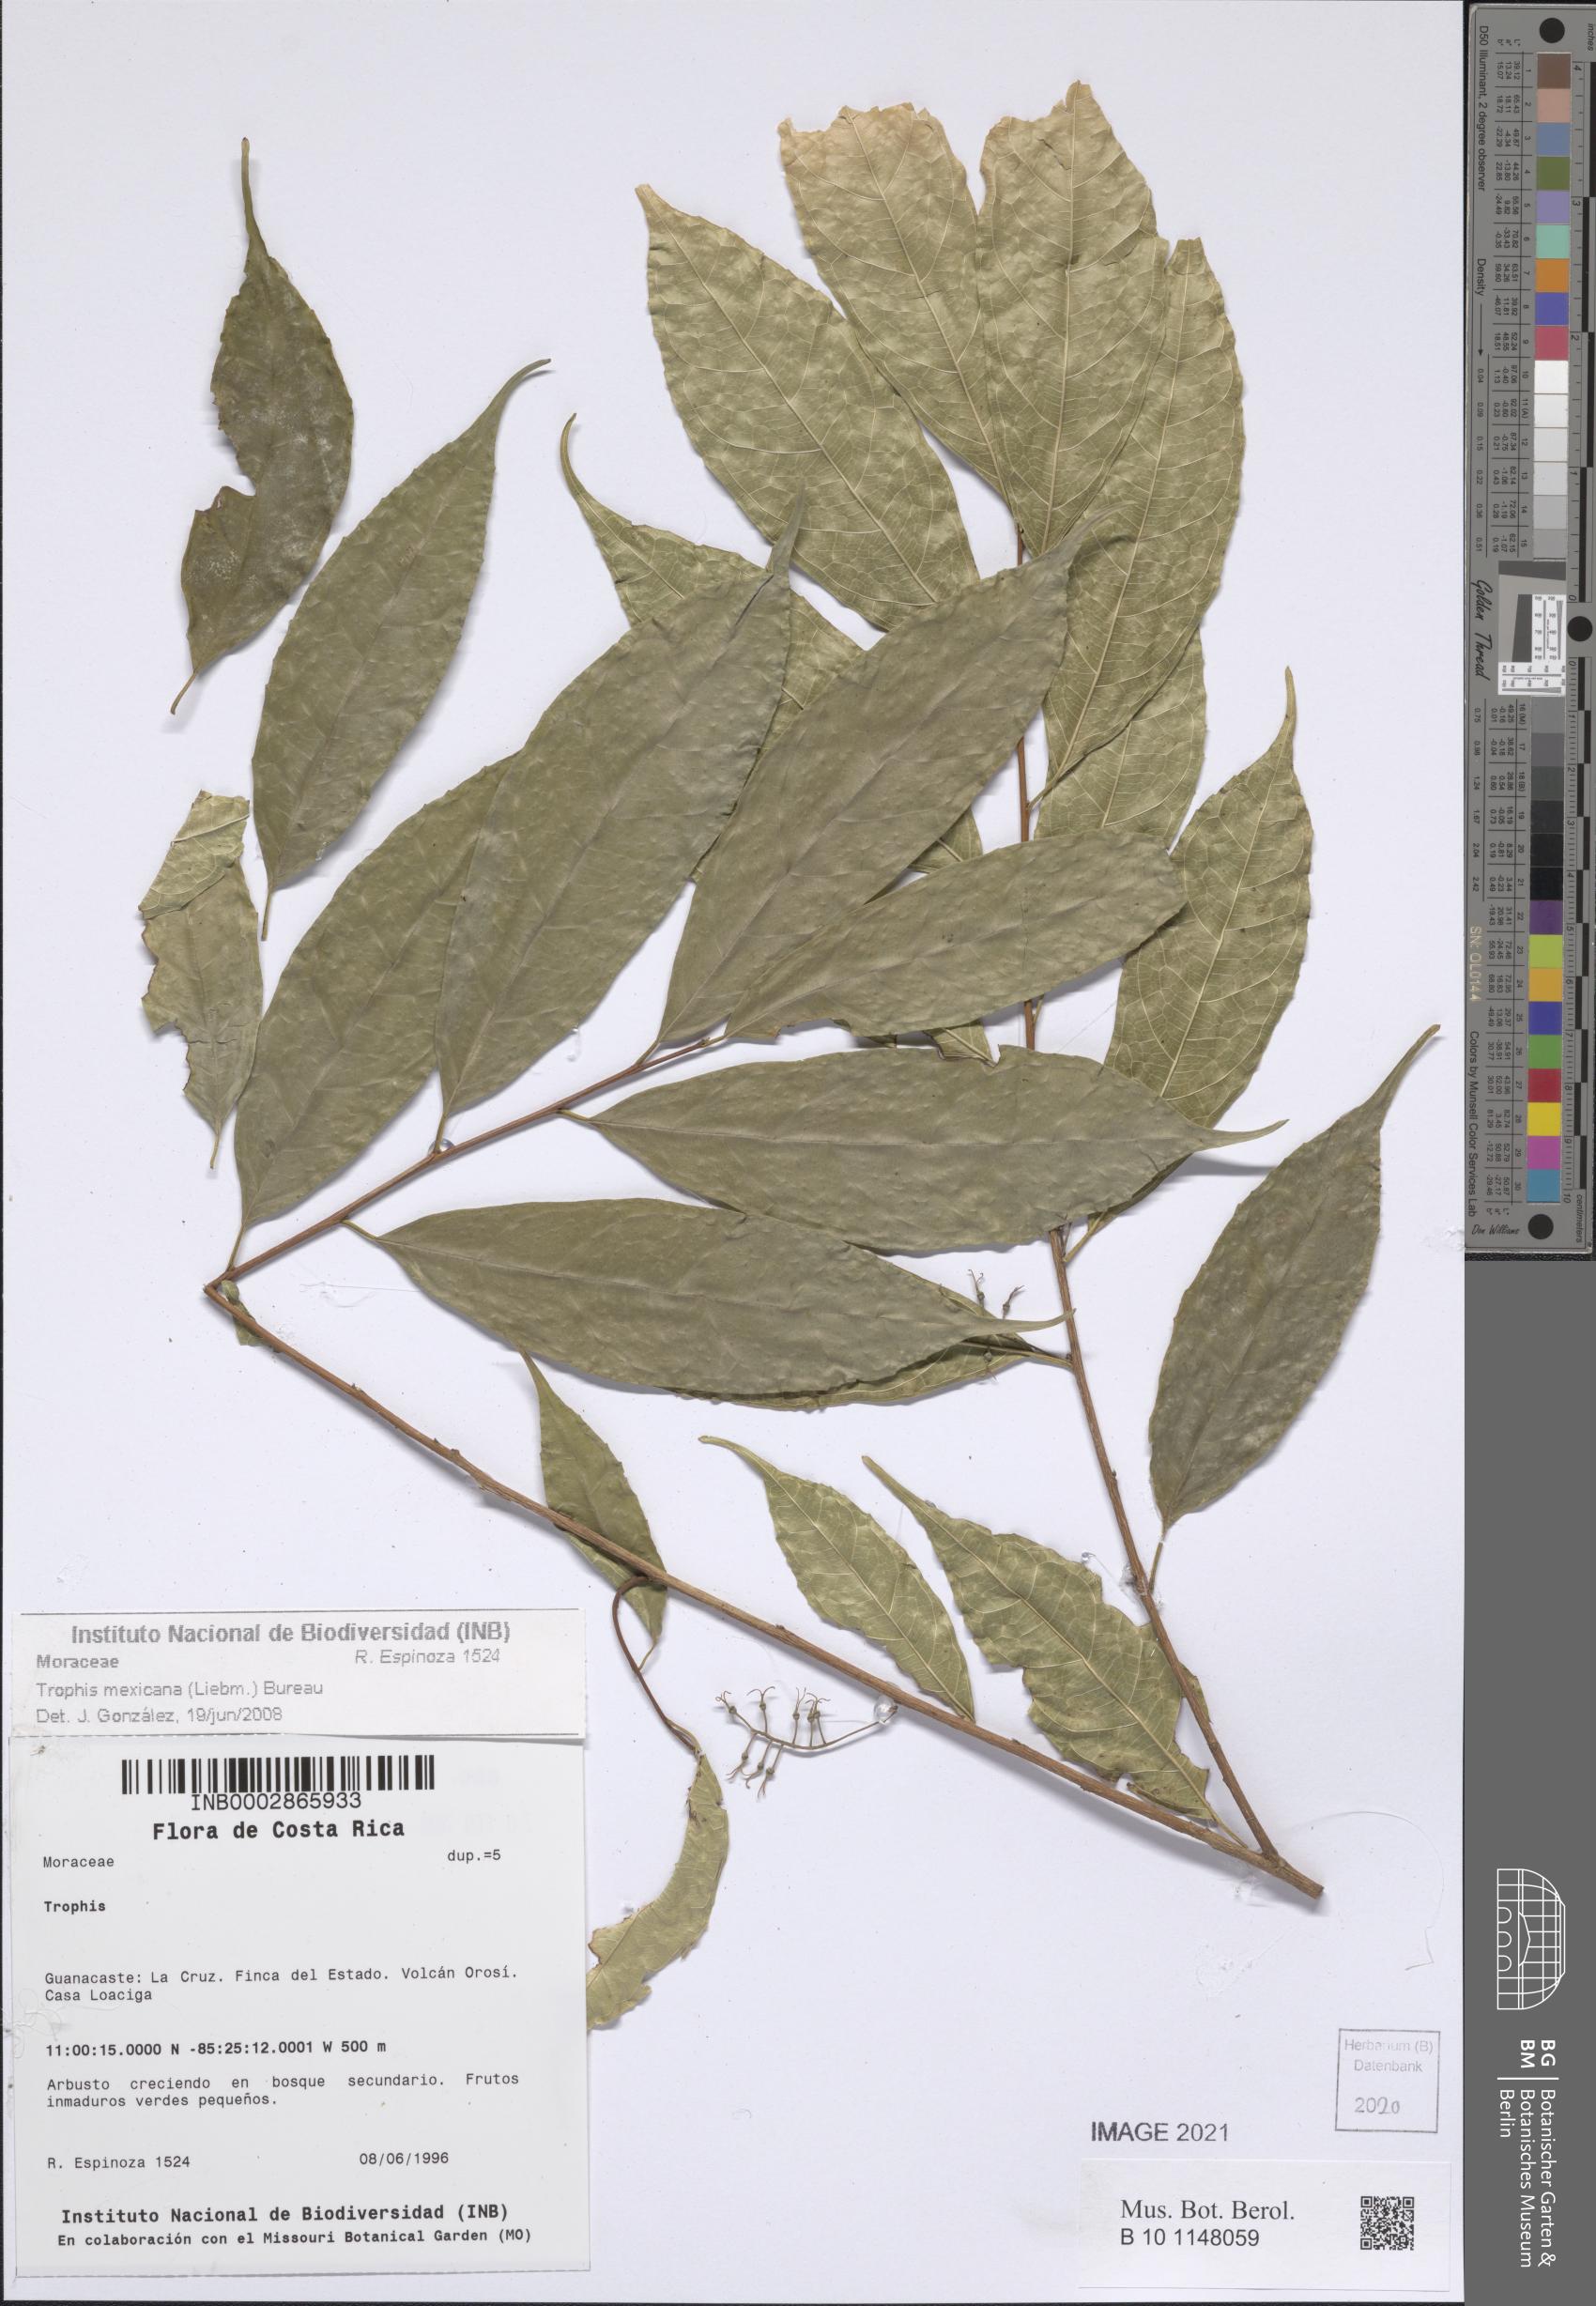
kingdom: Plantae
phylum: Tracheophyta
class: Magnoliopsida
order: Rosales
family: Moraceae
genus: Trophis
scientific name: Trophis mexicana
